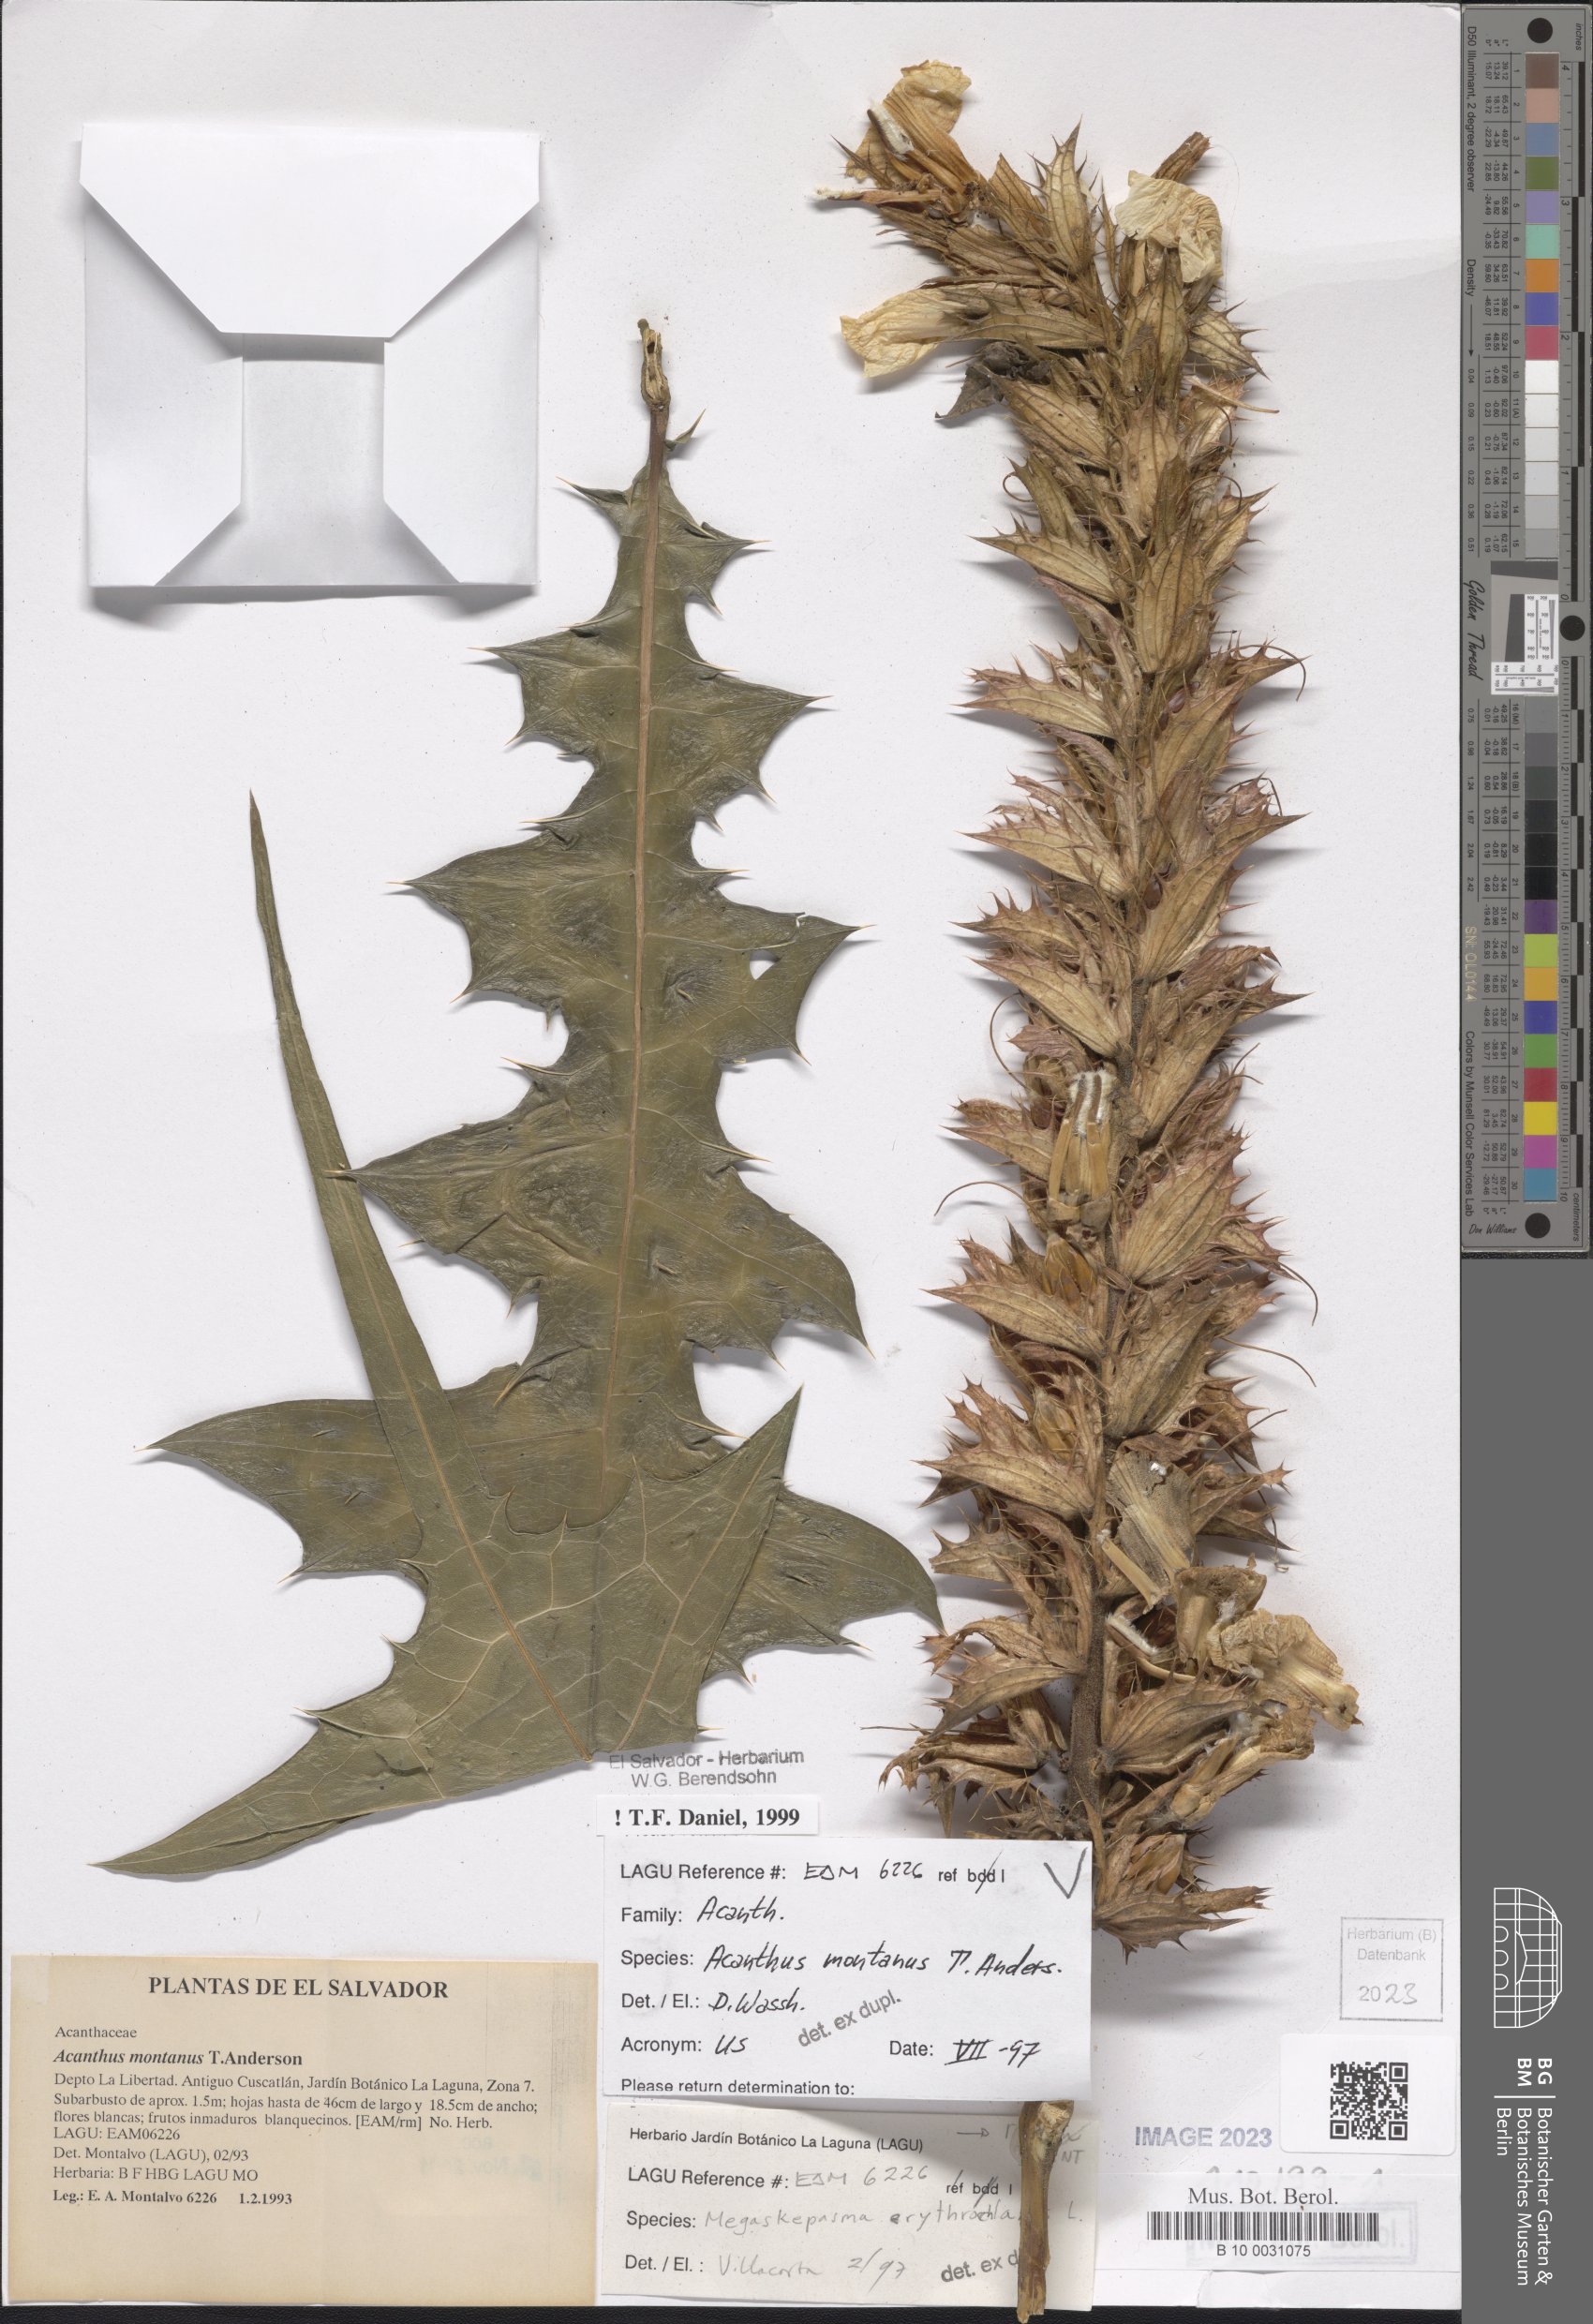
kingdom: Plantae
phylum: Tracheophyta
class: Magnoliopsida
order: Lamiales
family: Acanthaceae
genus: Acanthus
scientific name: Acanthus montanus
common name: Mountain thistle
